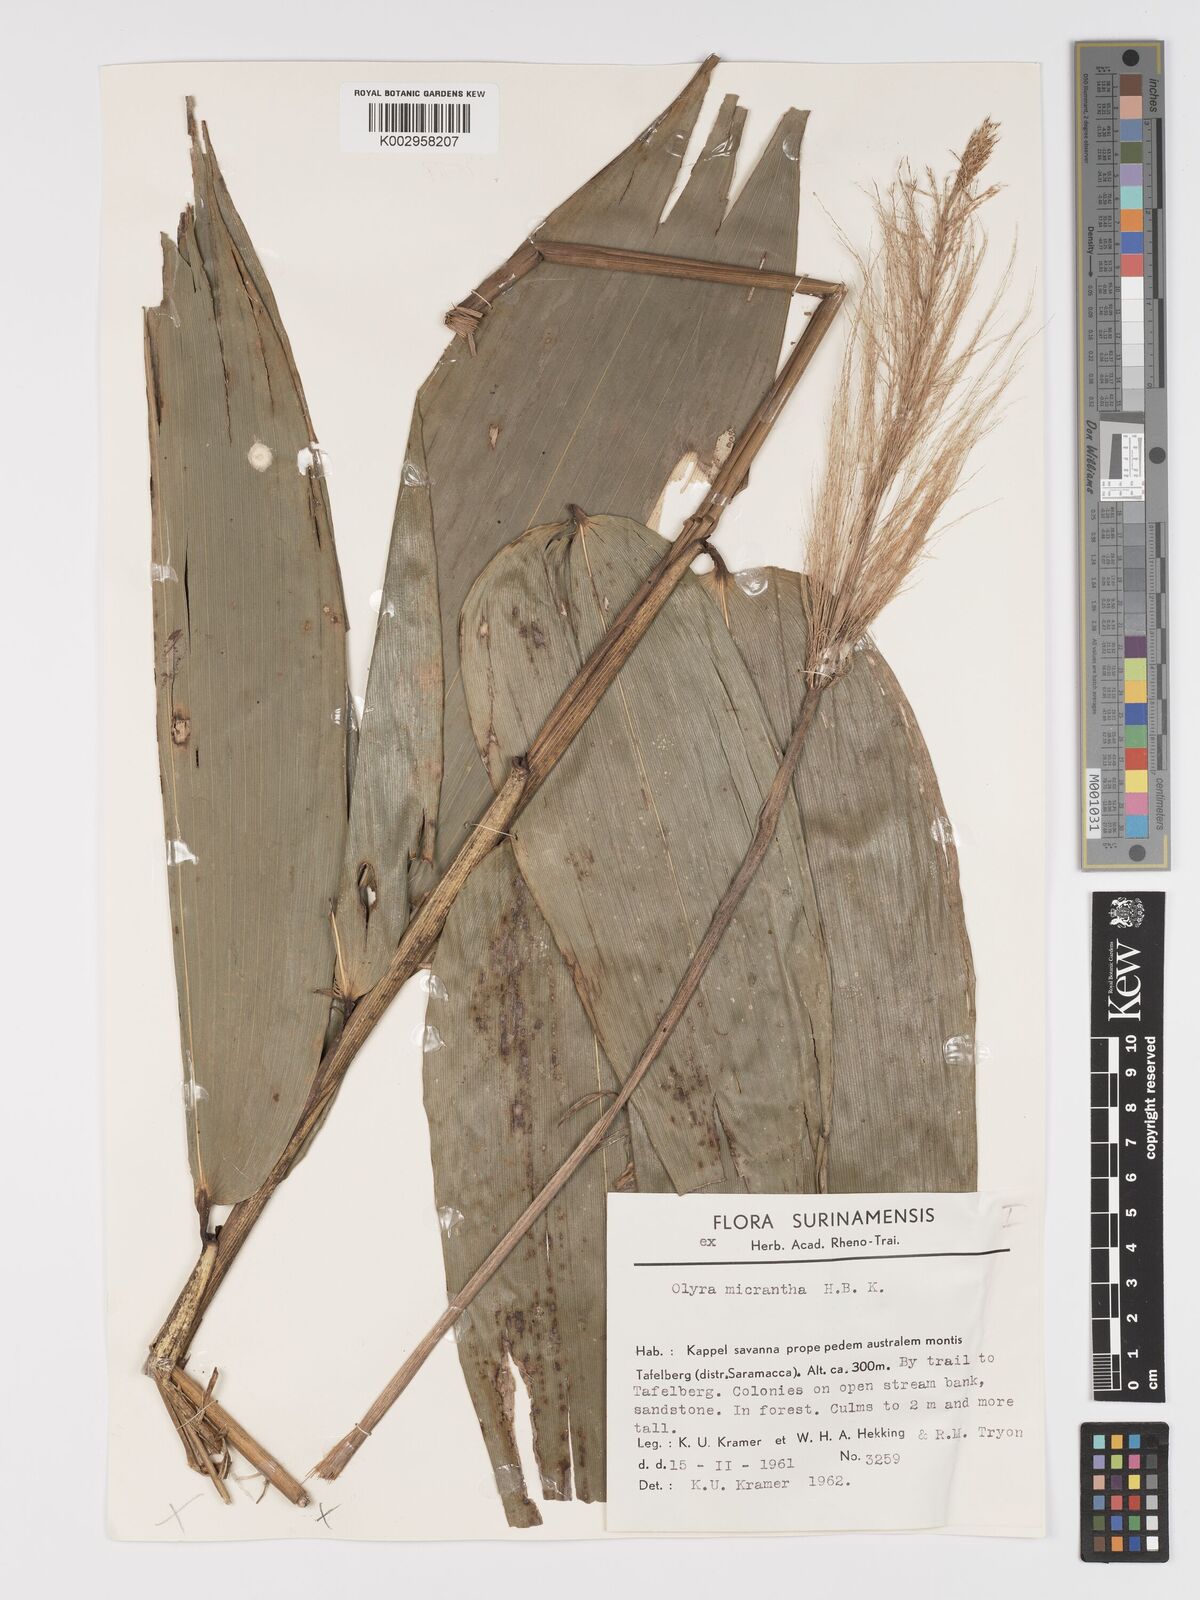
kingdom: Plantae
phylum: Tracheophyta
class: Liliopsida
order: Poales
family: Poaceae
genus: Taquara
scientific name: Taquara micrantha
